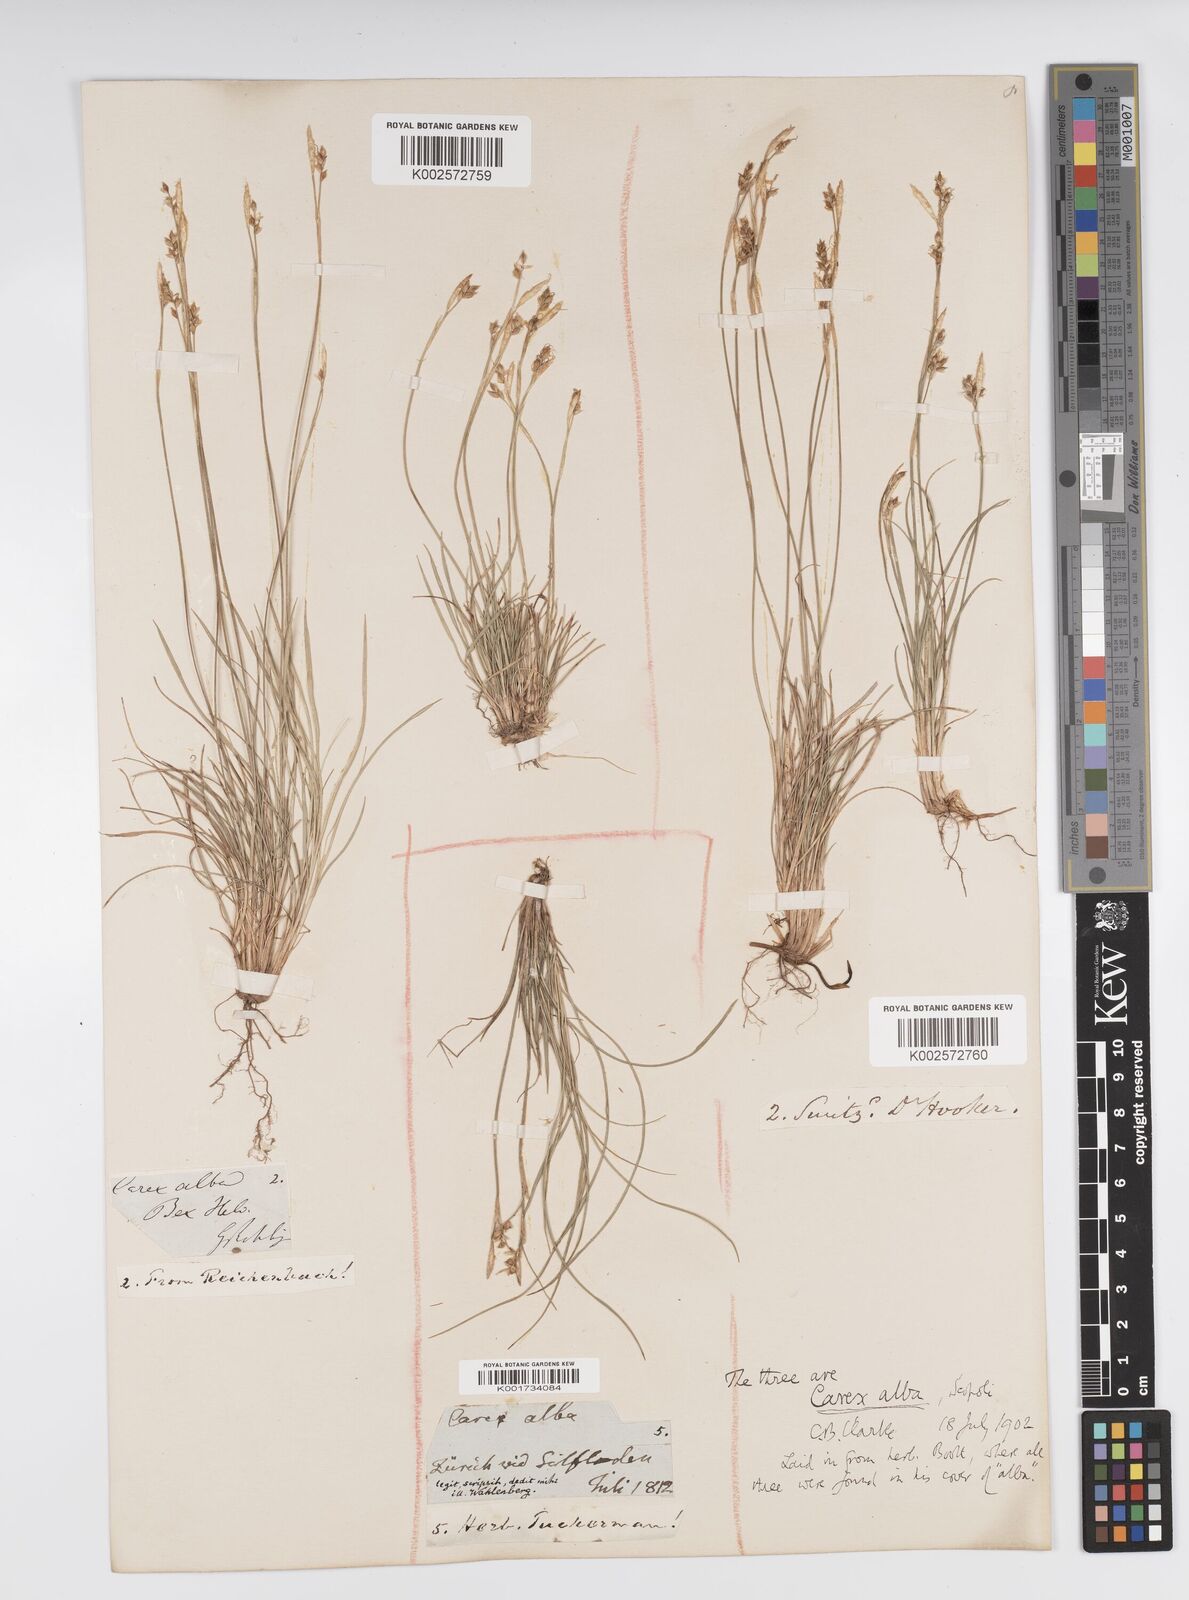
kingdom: Plantae
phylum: Tracheophyta
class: Liliopsida
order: Poales
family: Cyperaceae
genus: Carex
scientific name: Carex alba
